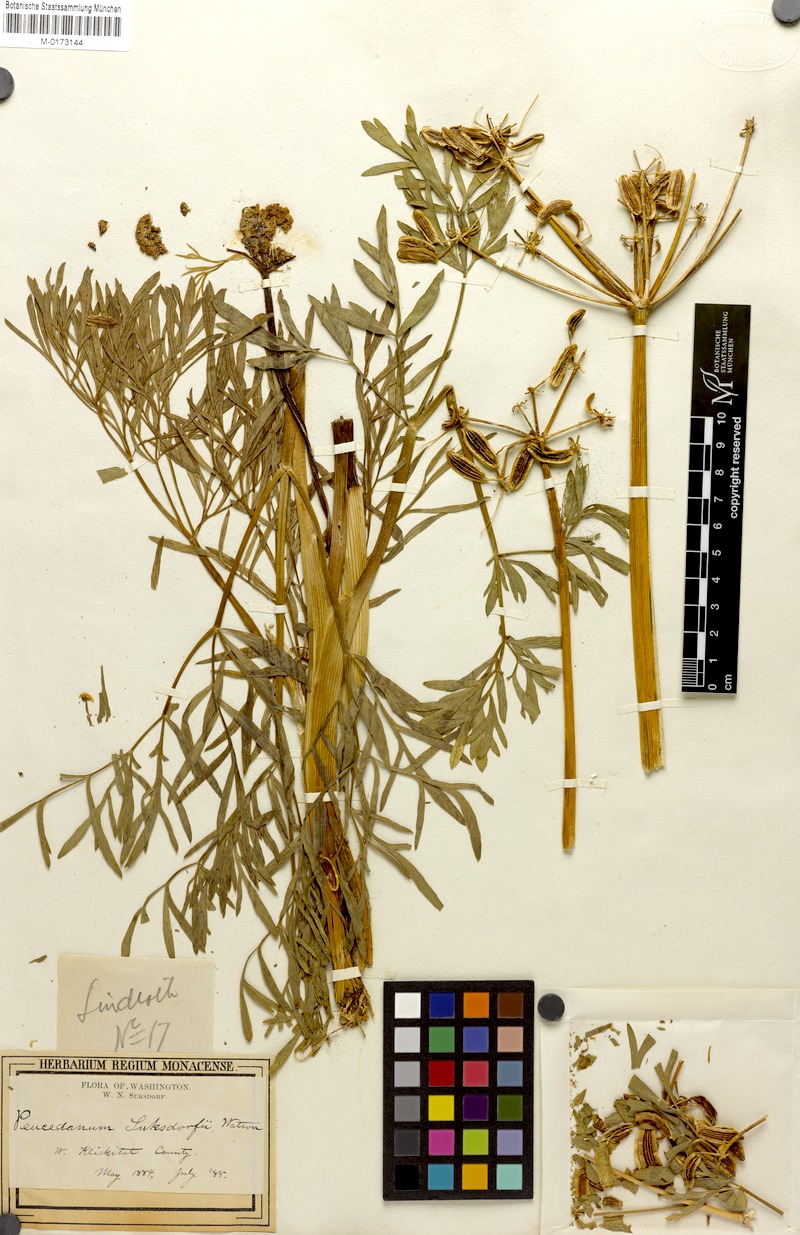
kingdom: Plantae
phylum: Tracheophyta
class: Magnoliopsida
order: Apiales
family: Apiaceae
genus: Lomatium
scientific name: Lomatium suksdorfii
